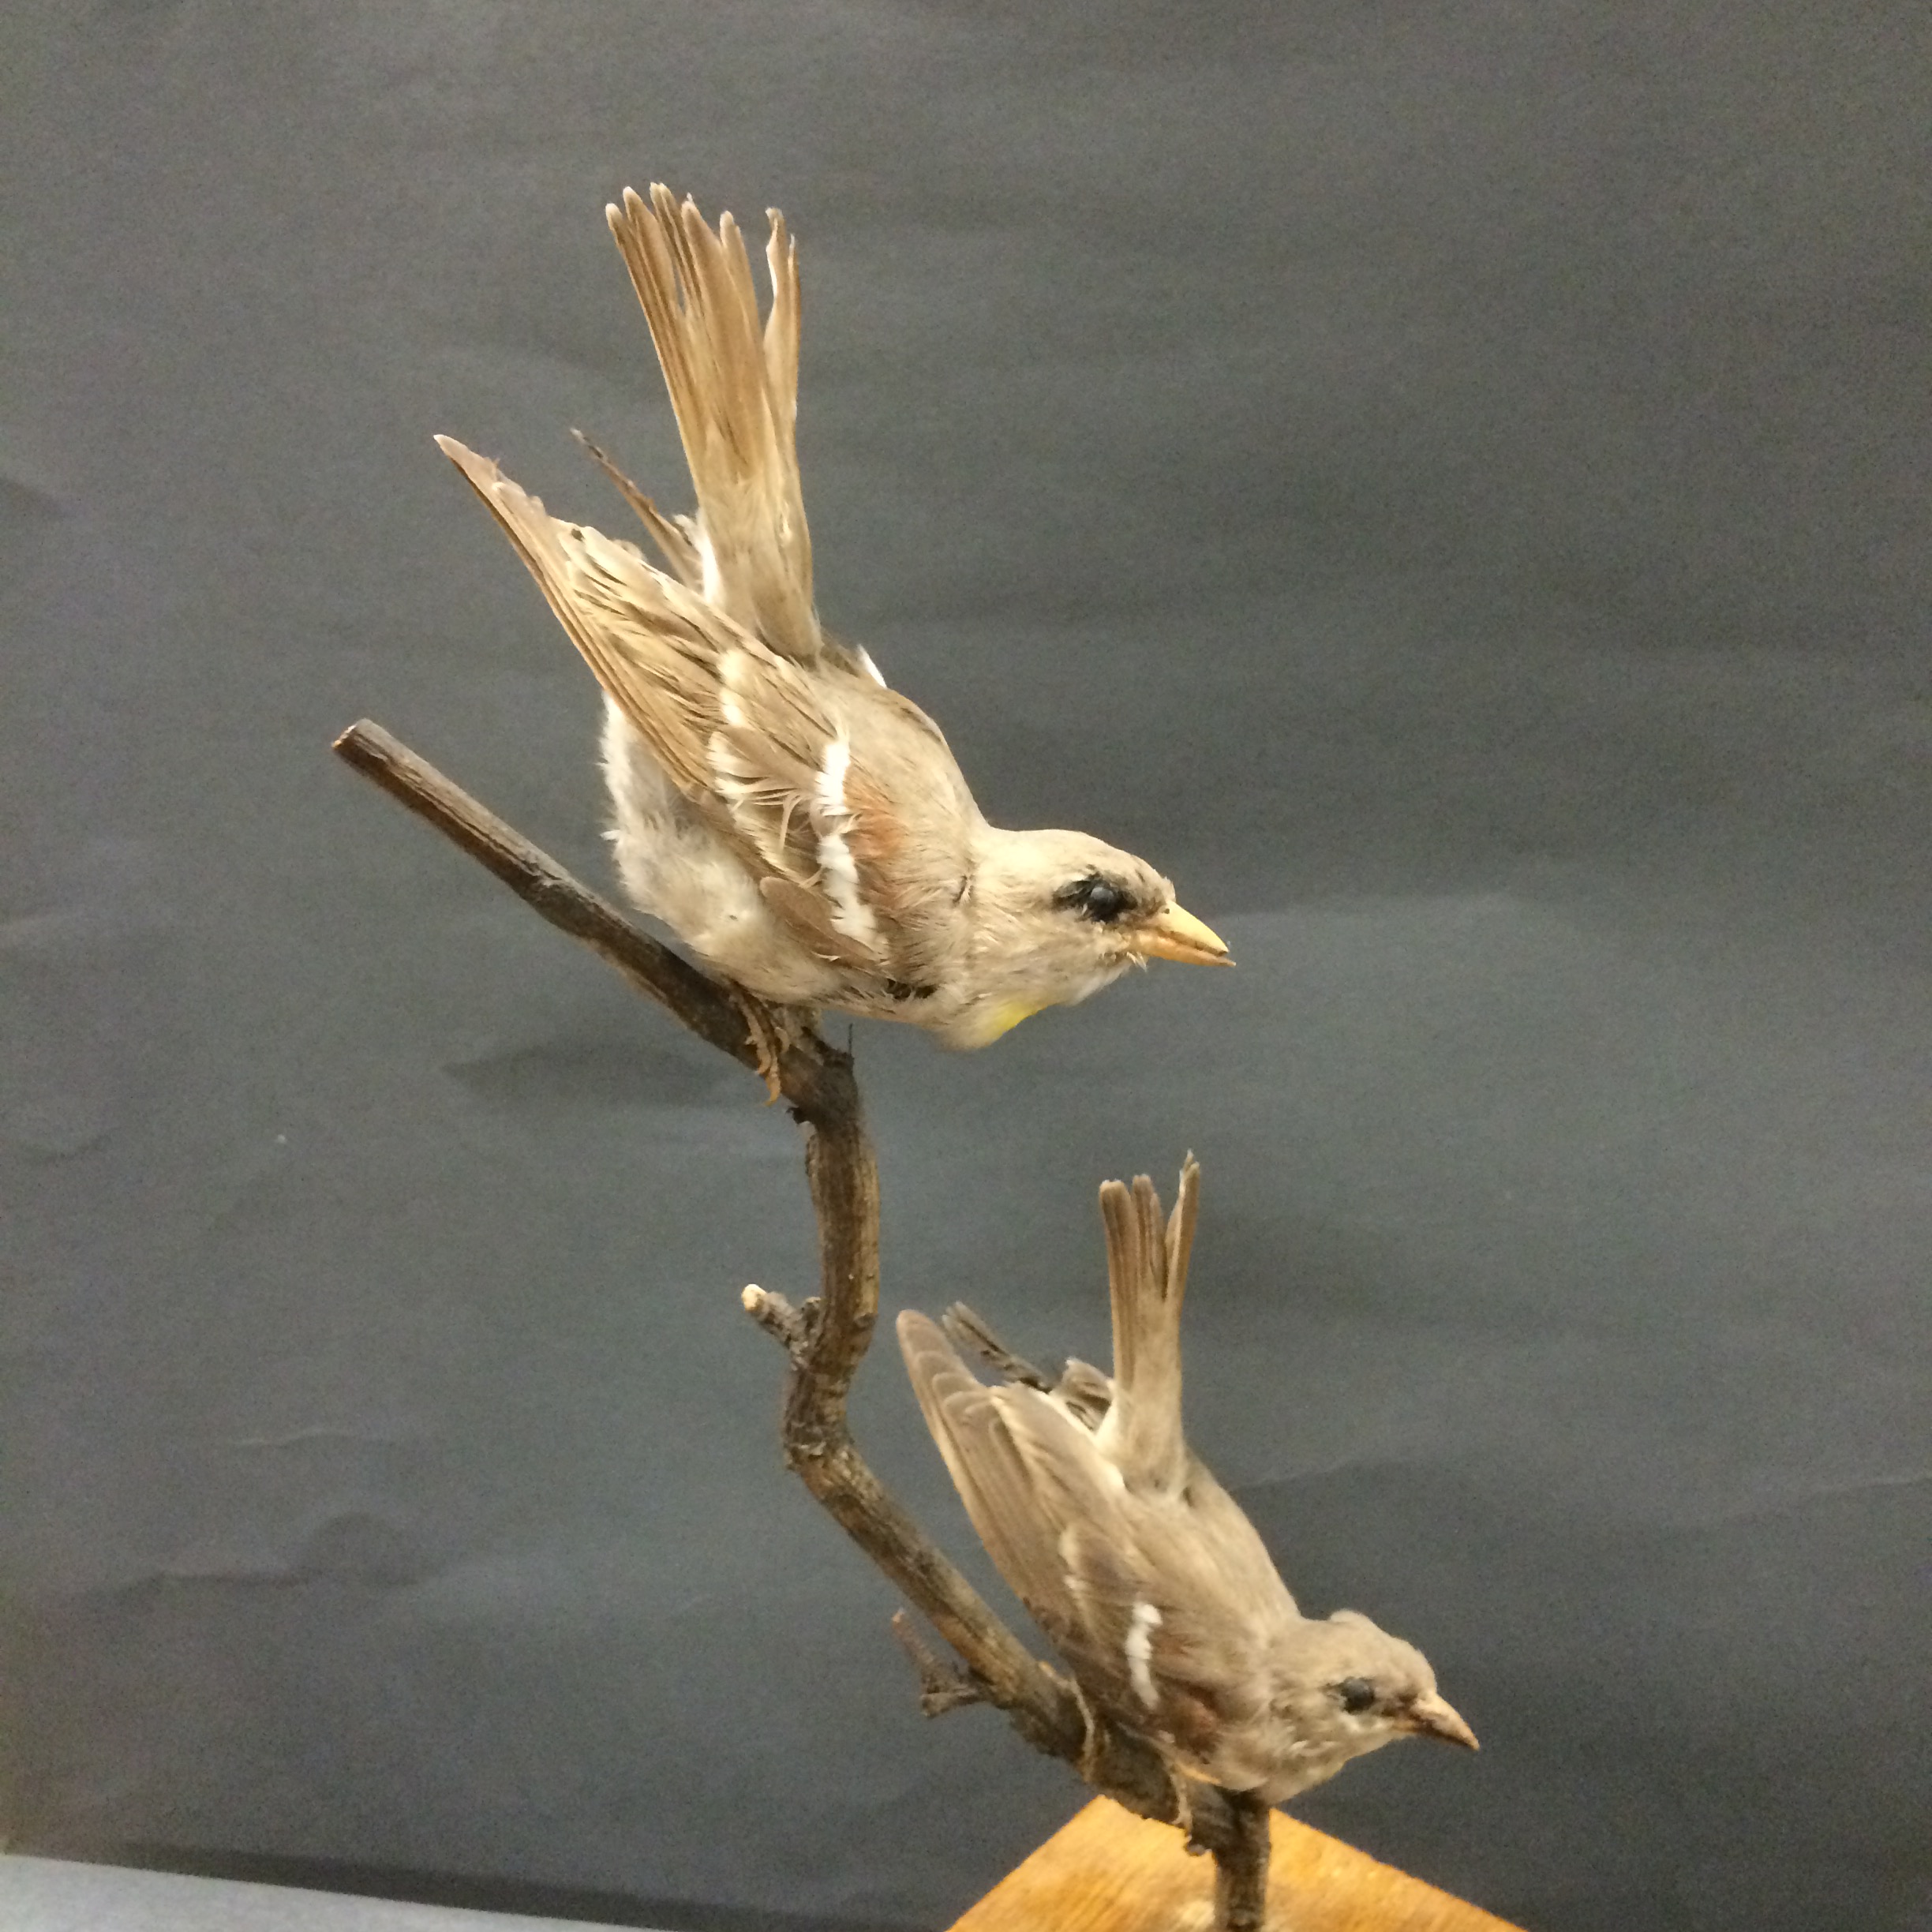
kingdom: Animalia
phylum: Chordata
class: Aves
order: Passeriformes
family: Passeridae
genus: Gymnoris
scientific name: Gymnoris xanthocollis
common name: Yellow-throated sparrow
